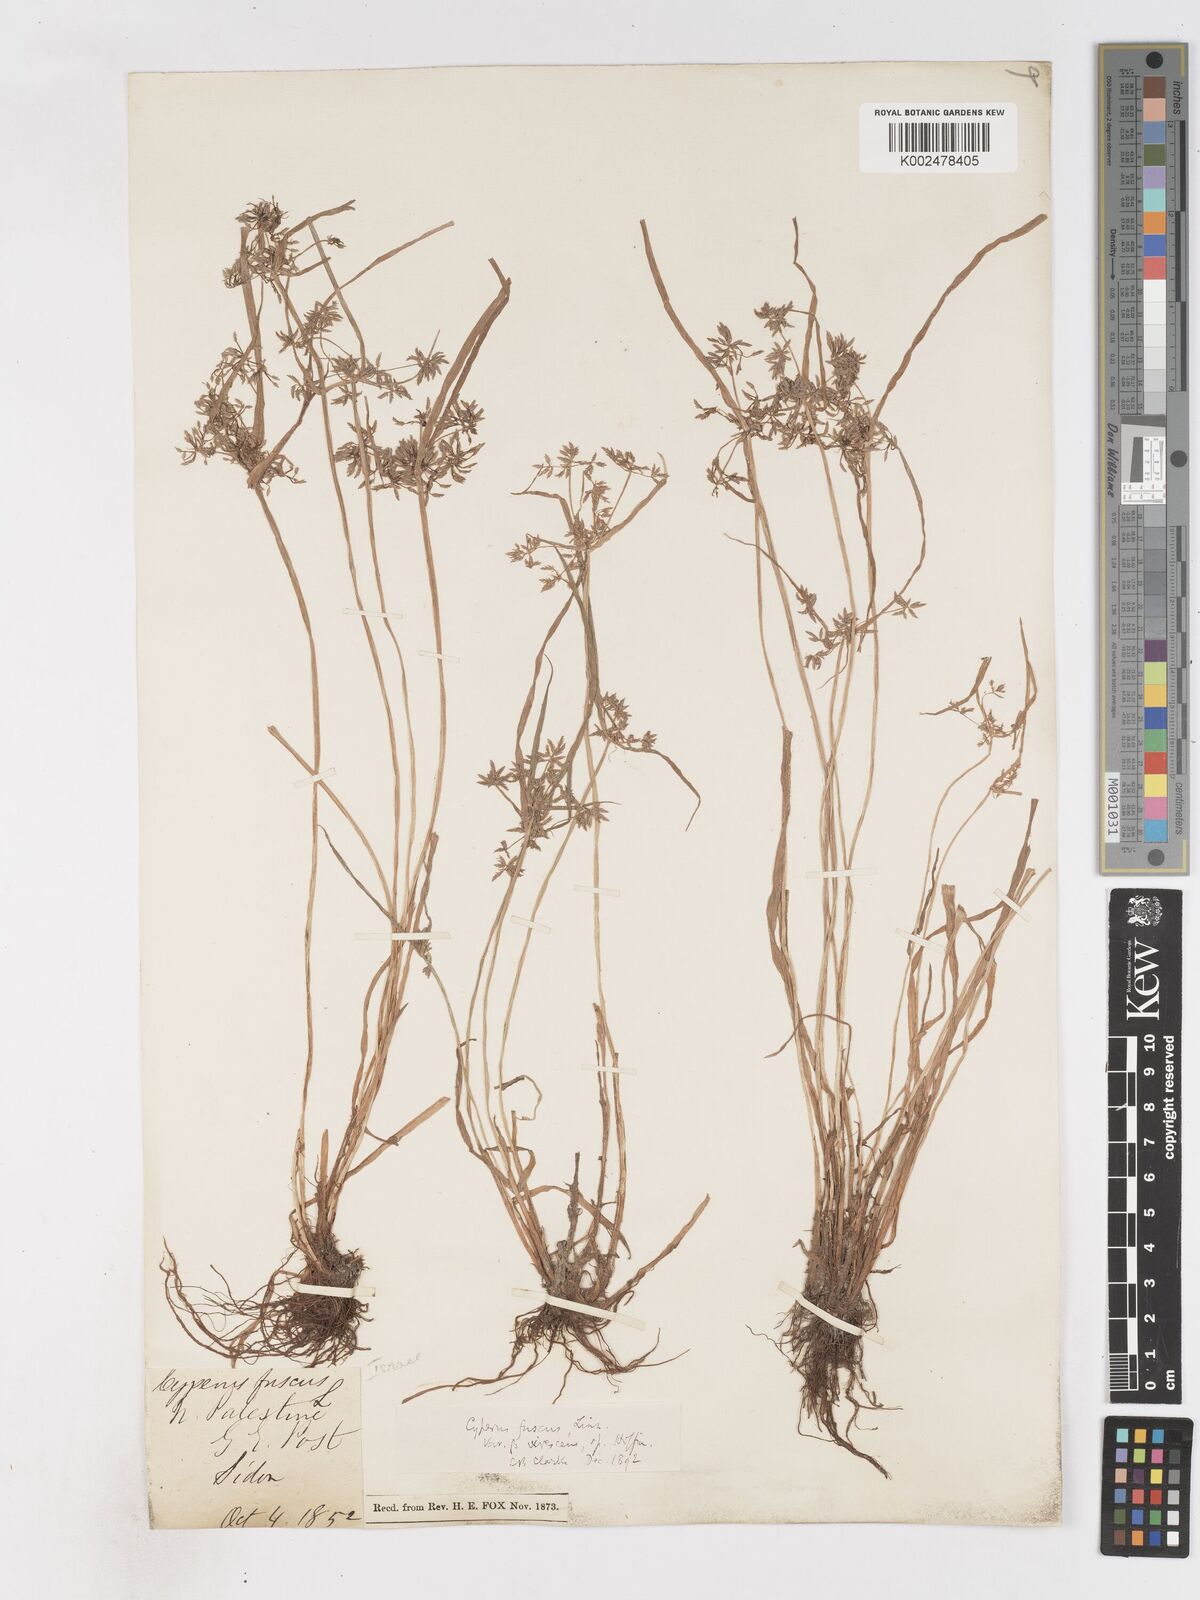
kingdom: Plantae
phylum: Tracheophyta
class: Liliopsida
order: Poales
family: Cyperaceae
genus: Cyperus
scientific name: Cyperus fuscus
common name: Brown galingale
